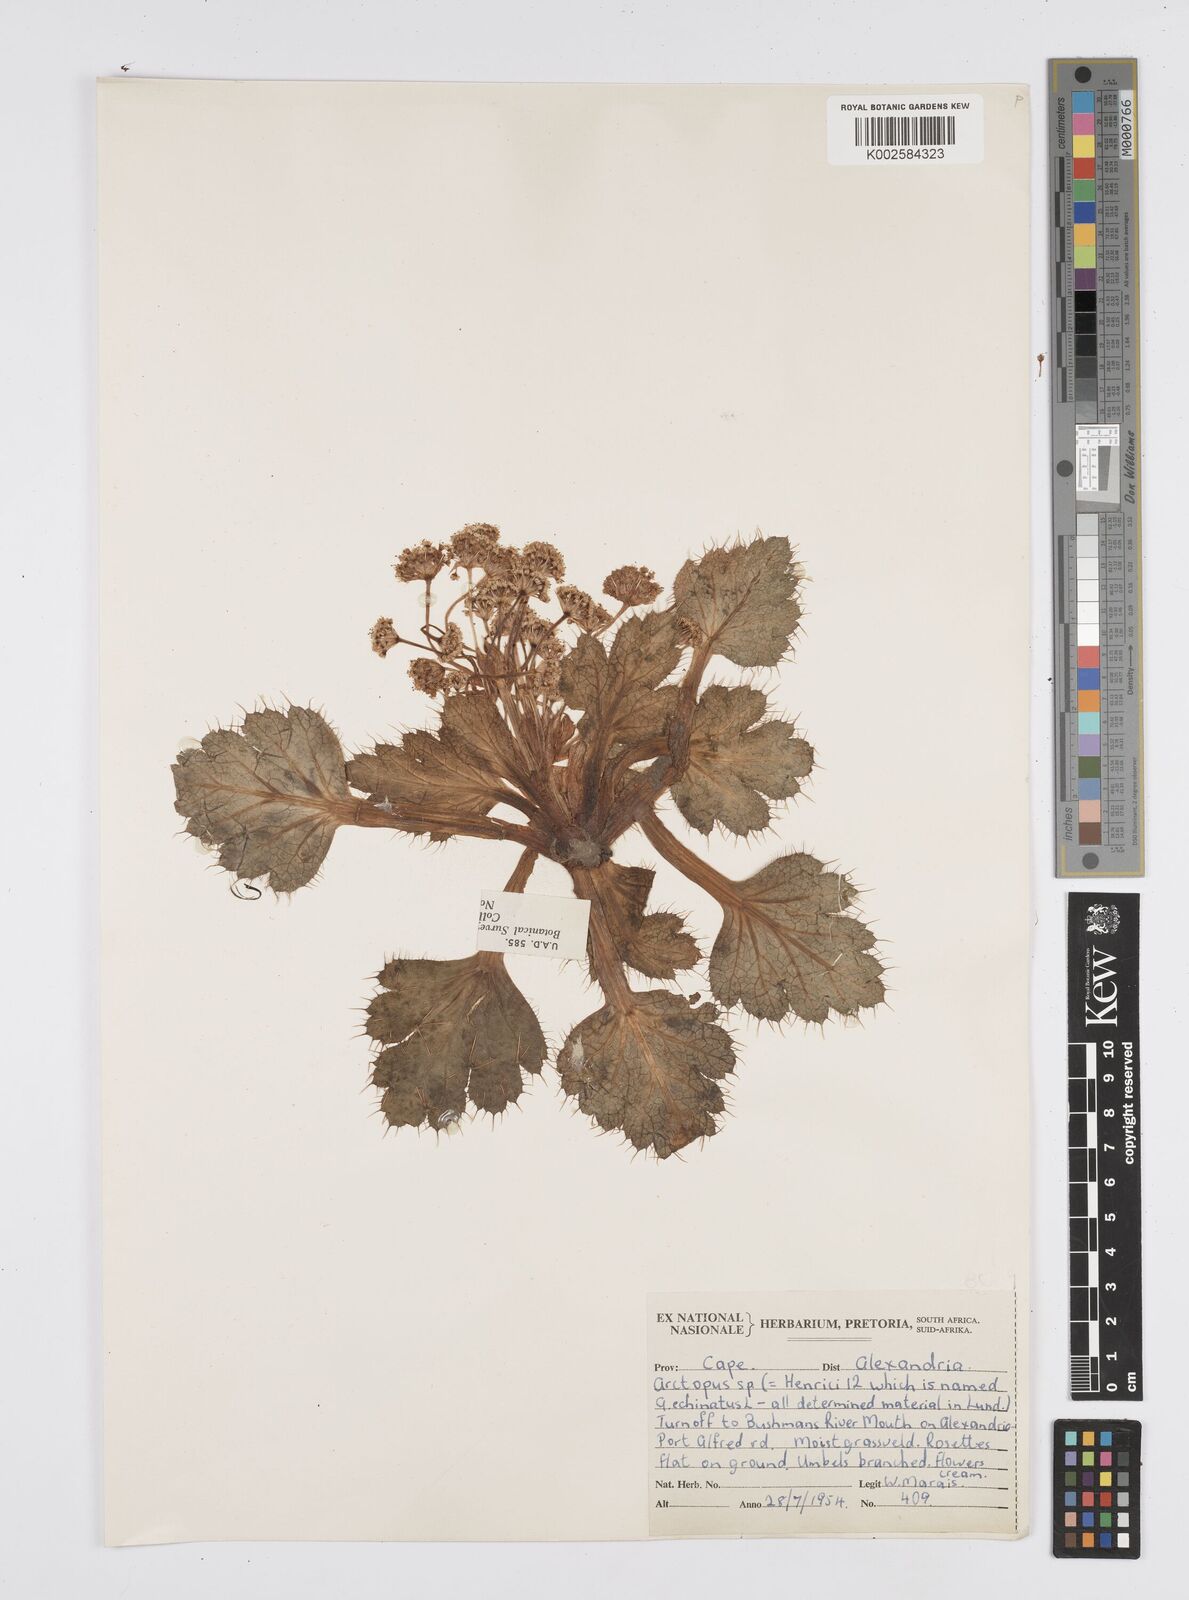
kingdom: Plantae
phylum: Tracheophyta
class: Magnoliopsida
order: Apiales
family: Apiaceae
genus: Arctopus
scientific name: Arctopus
